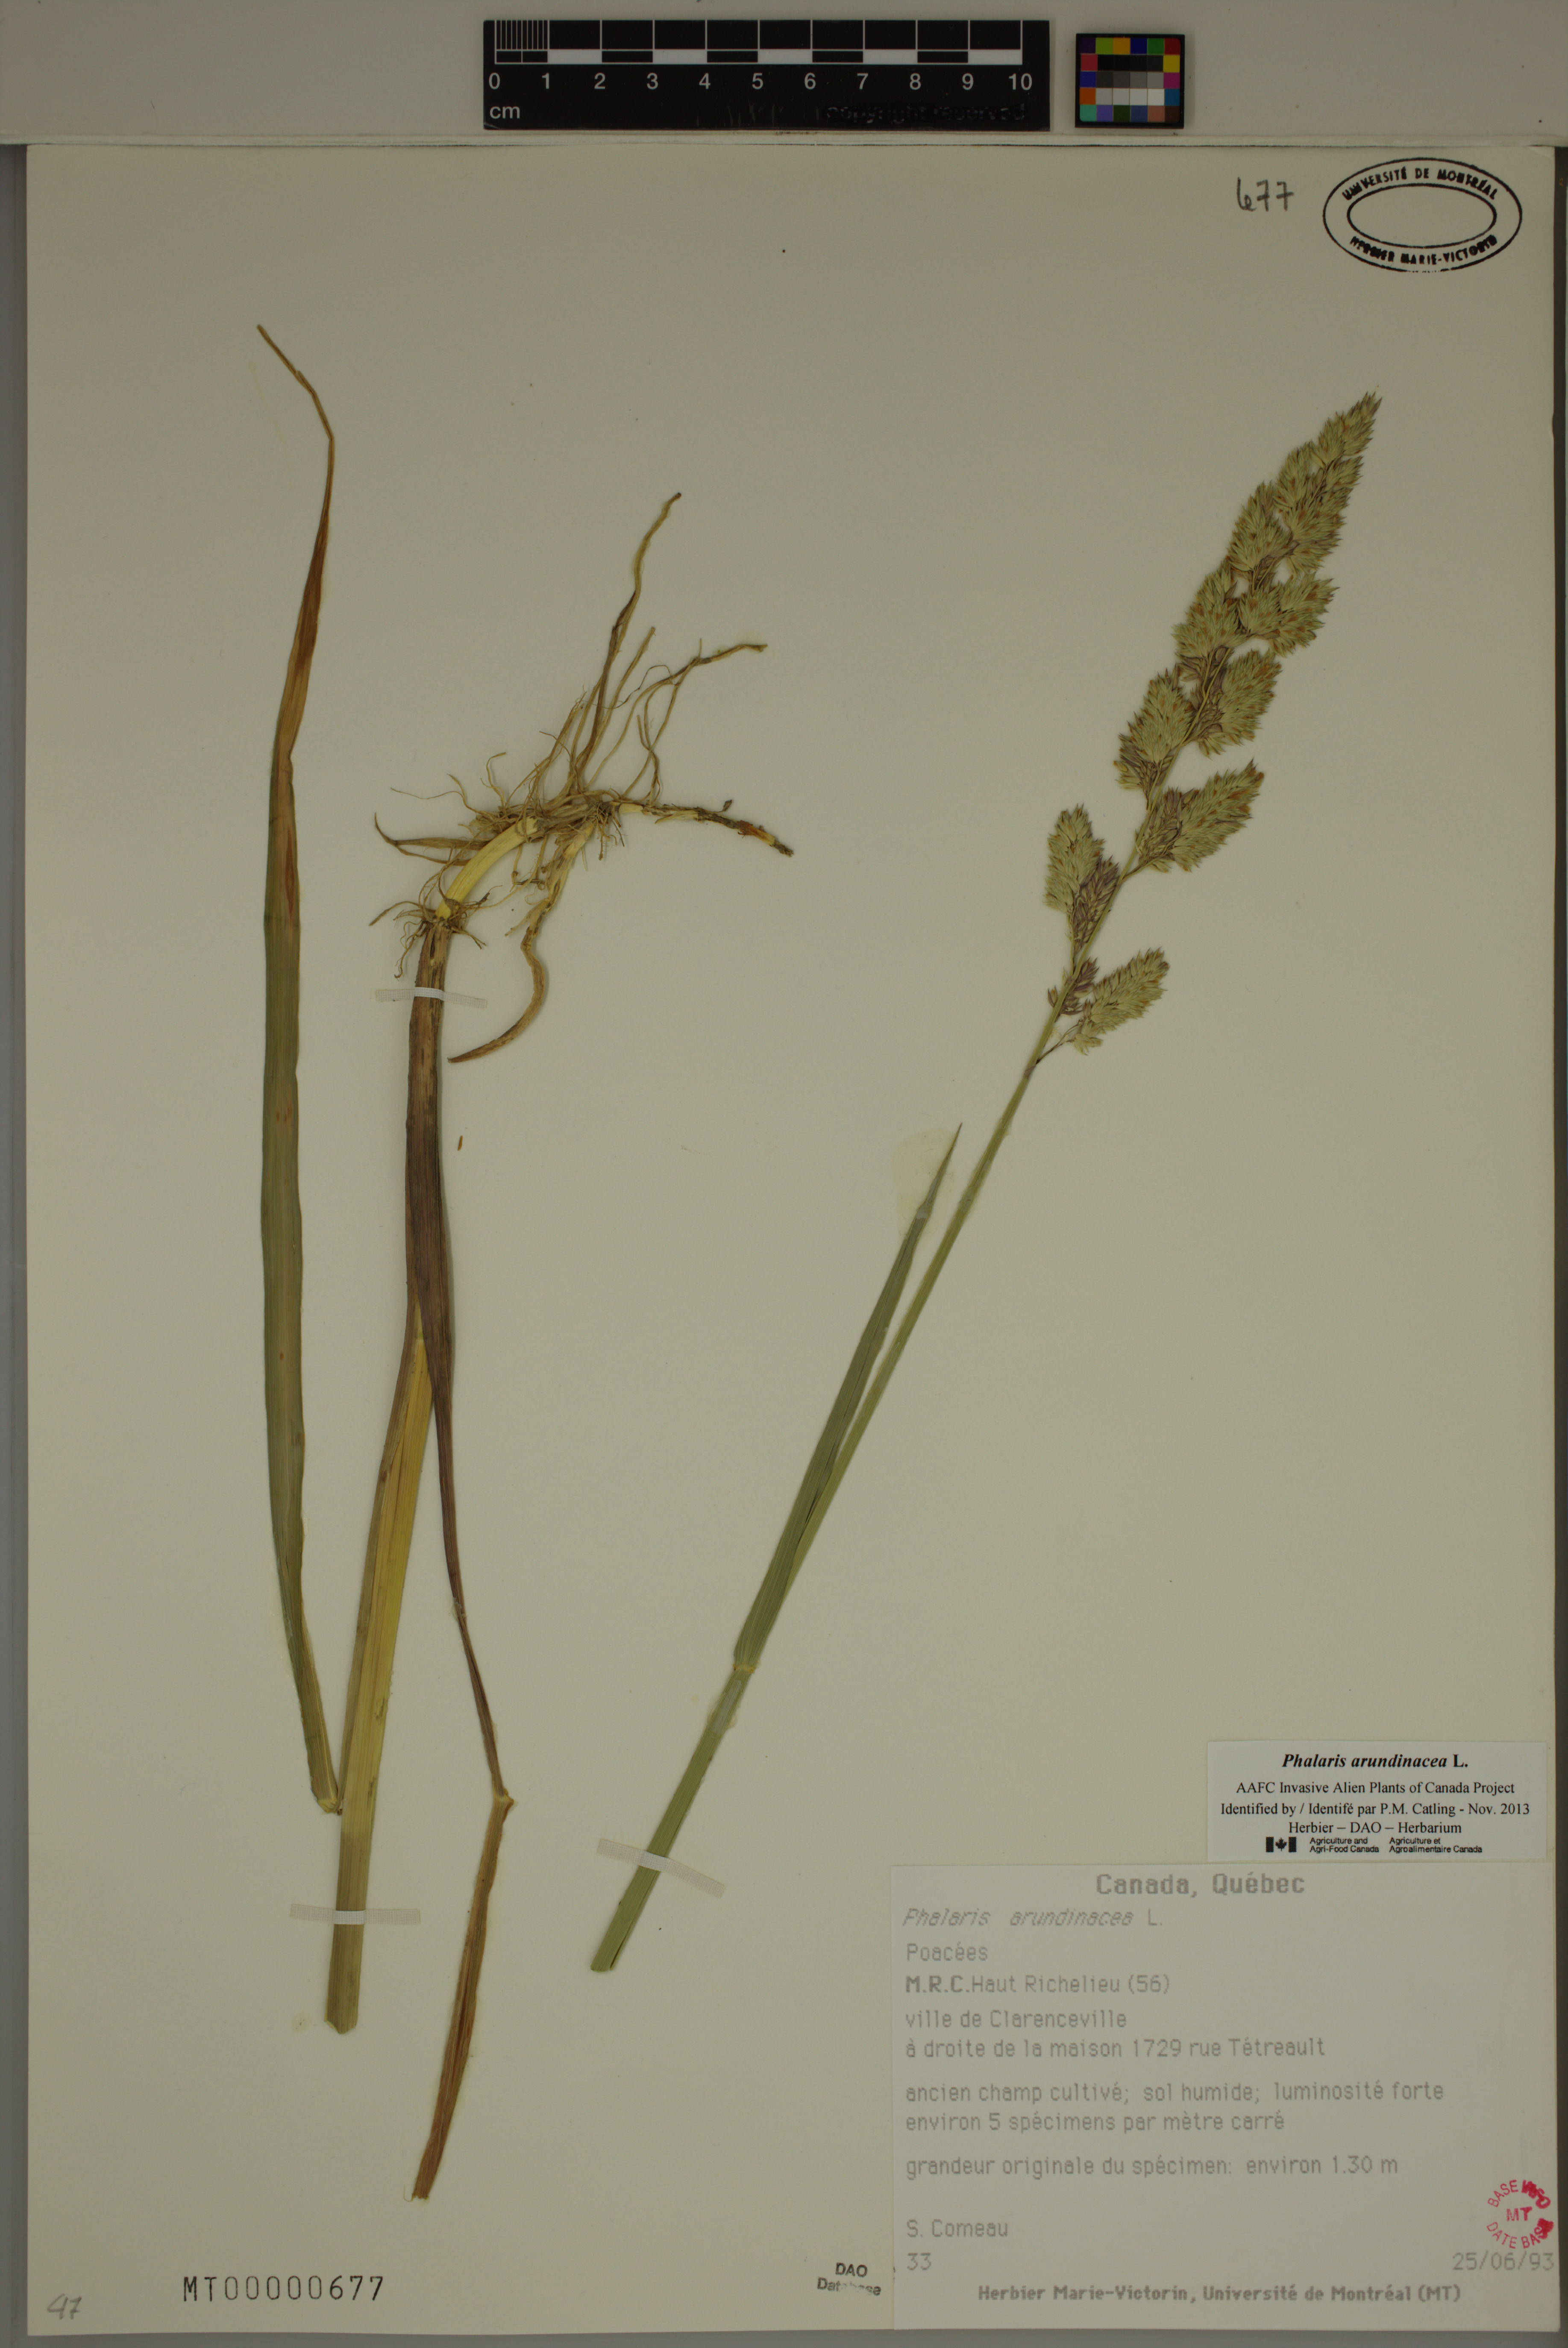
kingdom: Plantae
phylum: Tracheophyta
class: Liliopsida
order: Poales
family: Poaceae
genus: Phalaris
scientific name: Phalaris arundinacea
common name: Reed canary-grass
